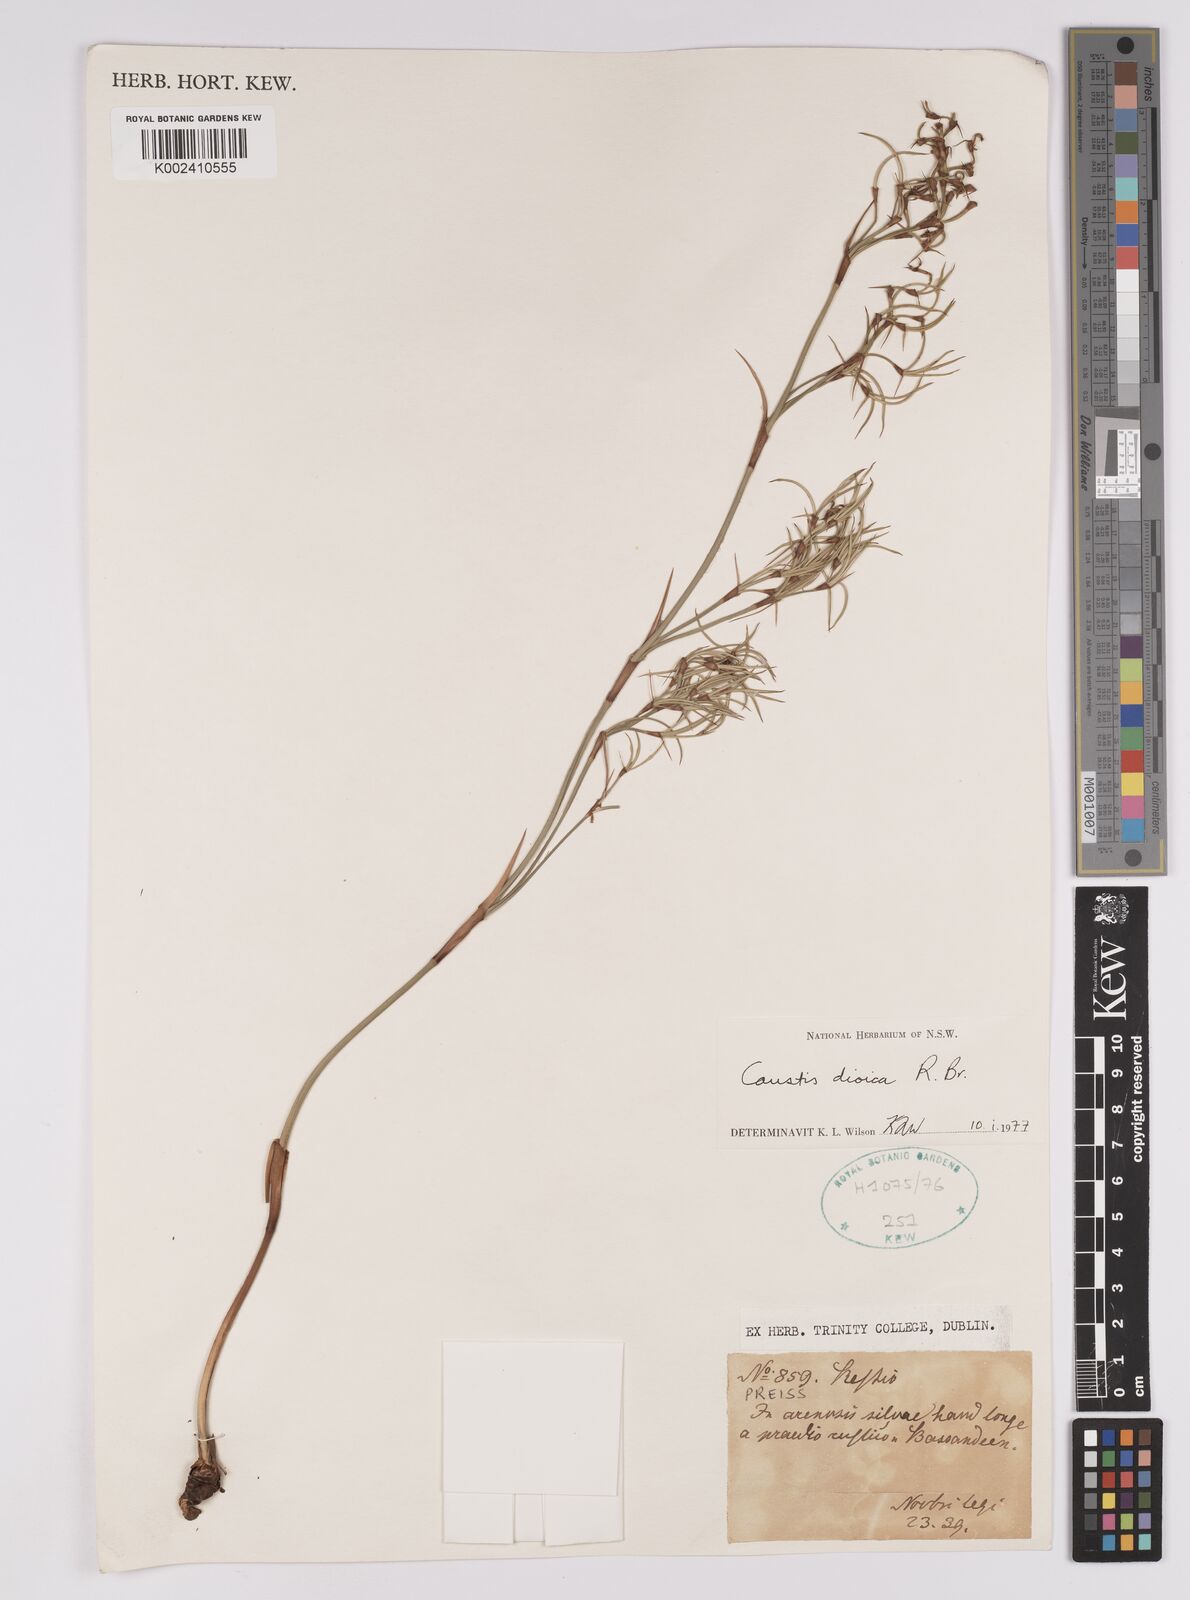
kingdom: Plantae
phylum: Tracheophyta
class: Liliopsida
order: Poales
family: Cyperaceae
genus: Caustis
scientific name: Caustis dioica
